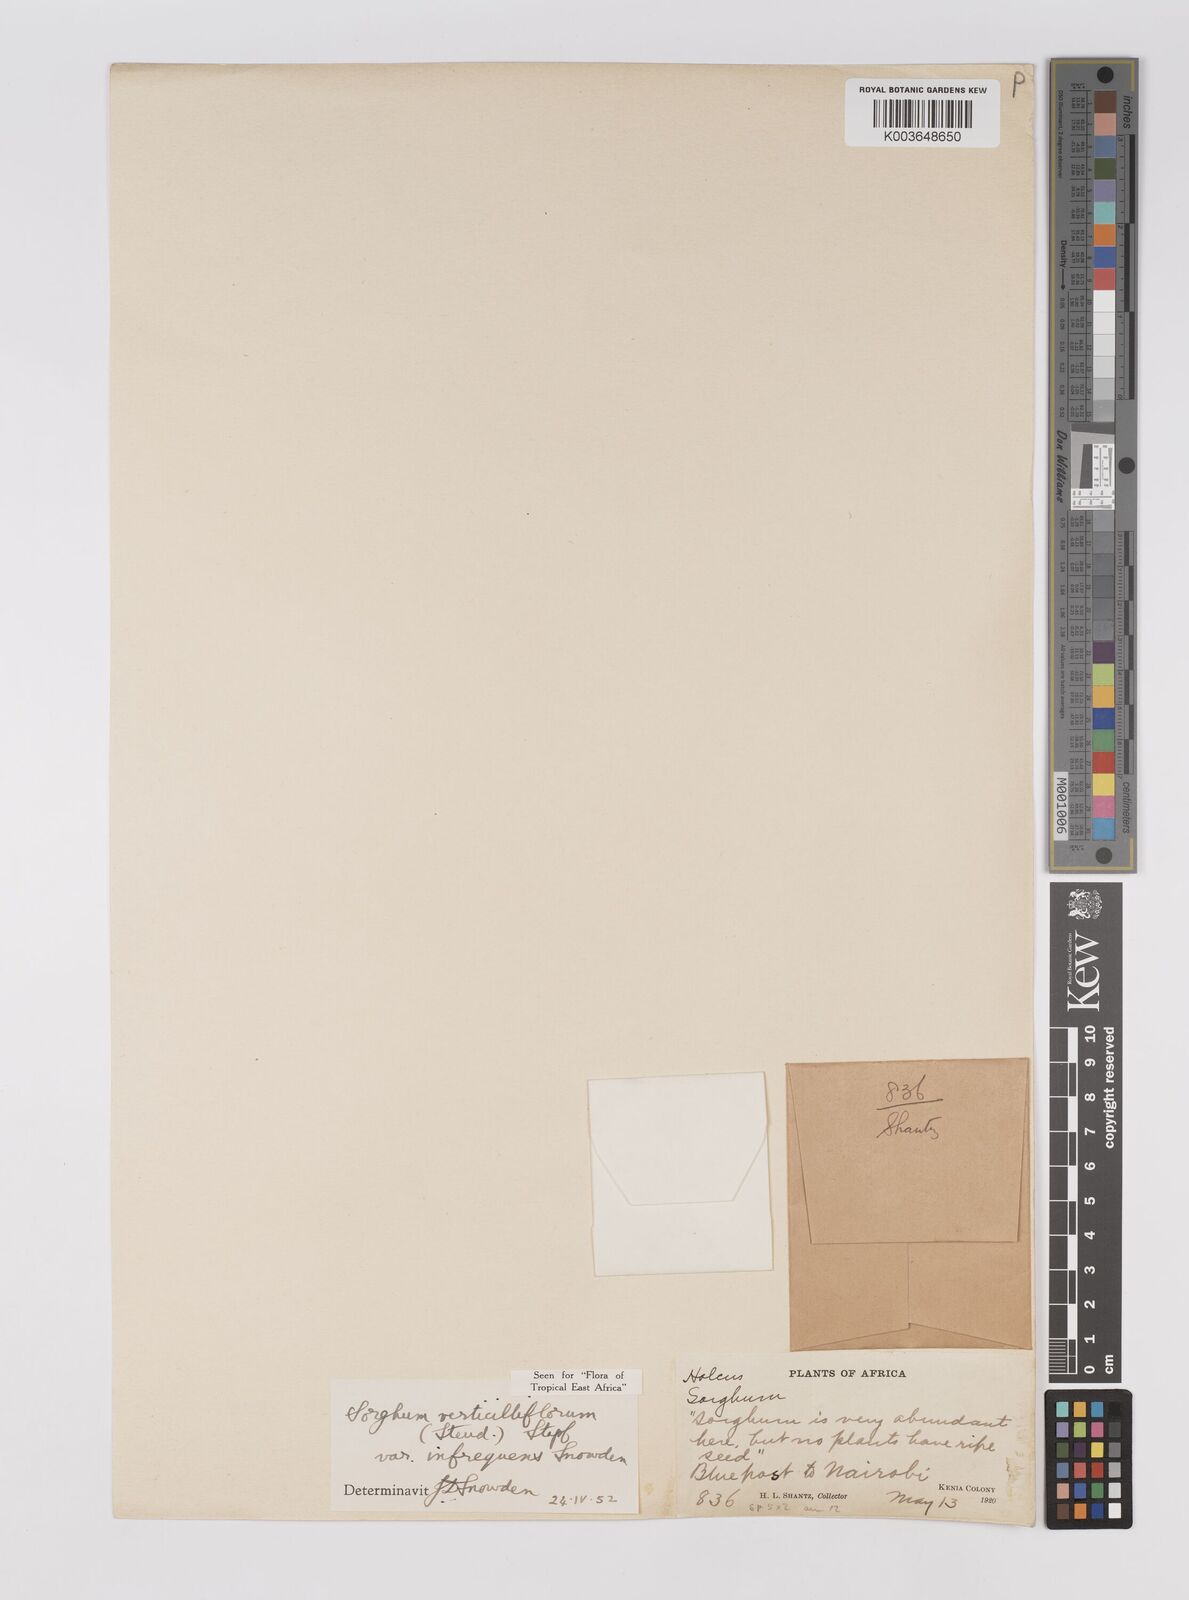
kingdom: Plantae
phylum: Tracheophyta
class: Liliopsida
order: Poales
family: Poaceae
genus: Sorghum
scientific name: Sorghum arundinaceum
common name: Sorghum
